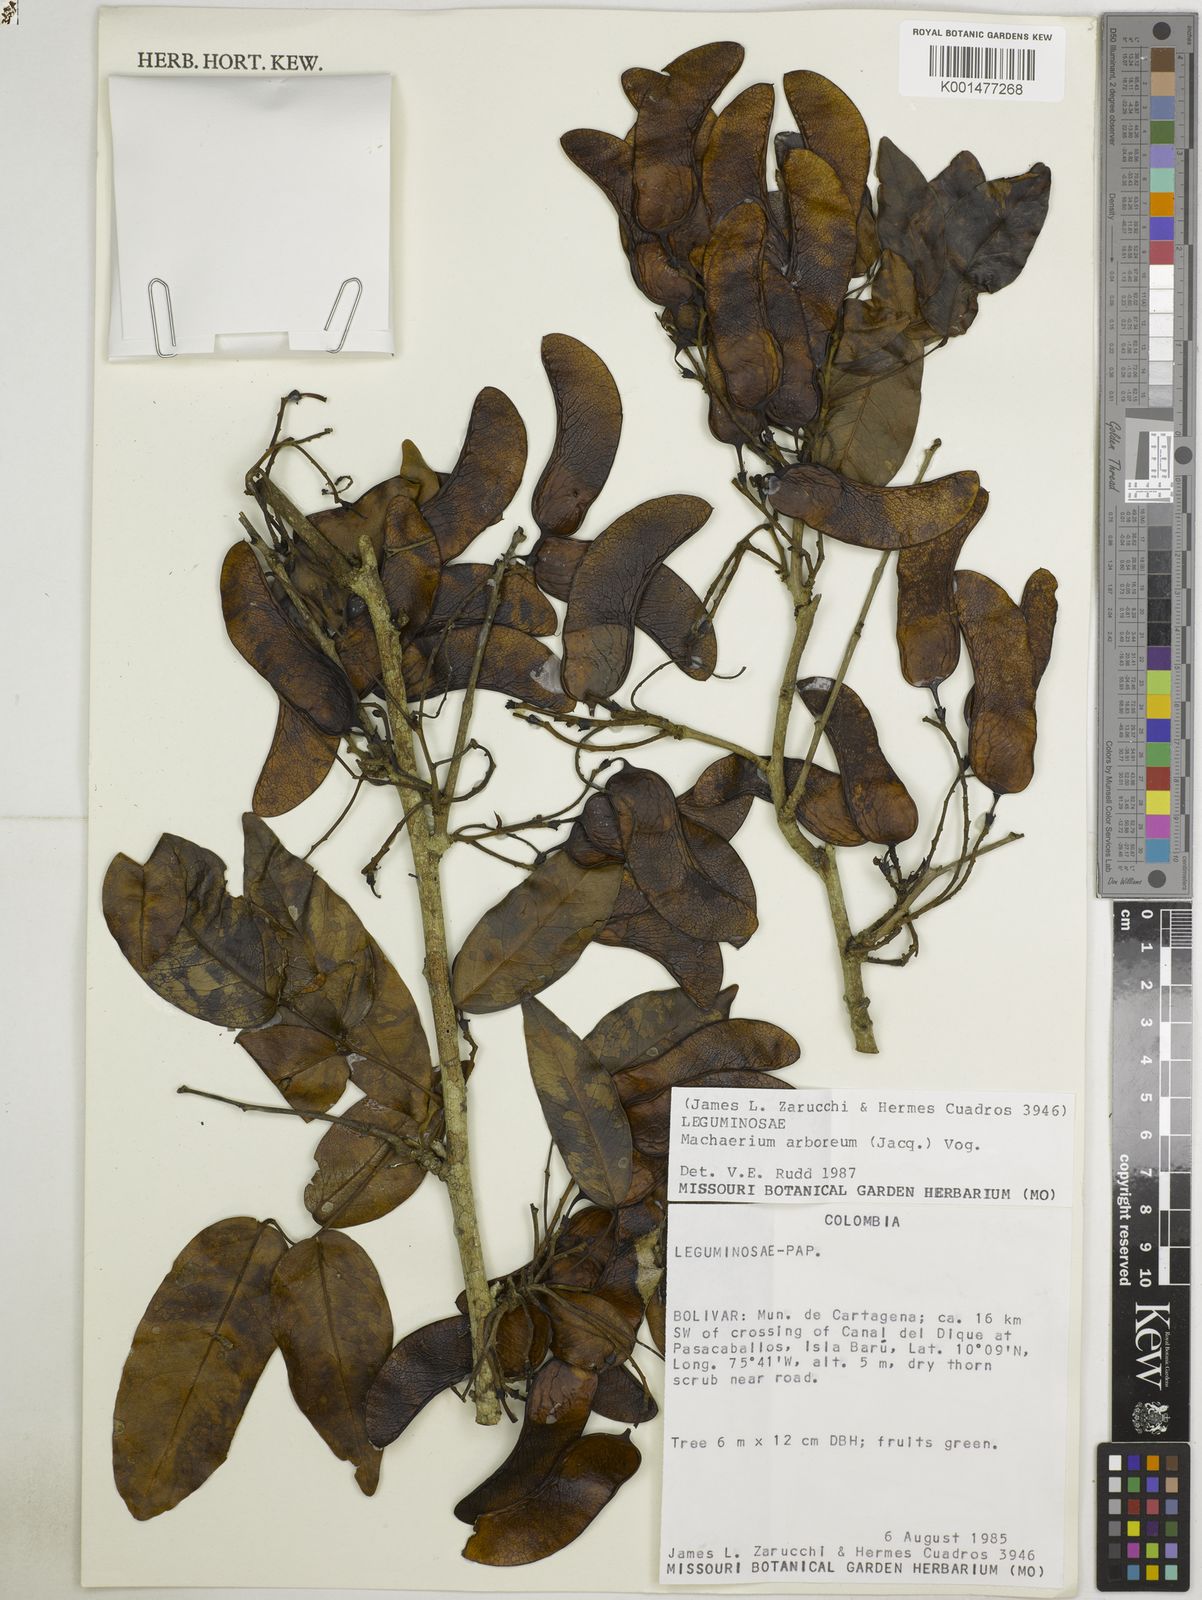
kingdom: Plantae
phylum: Tracheophyta
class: Magnoliopsida
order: Fabales
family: Fabaceae
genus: Machaerium
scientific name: Machaerium arboreum
